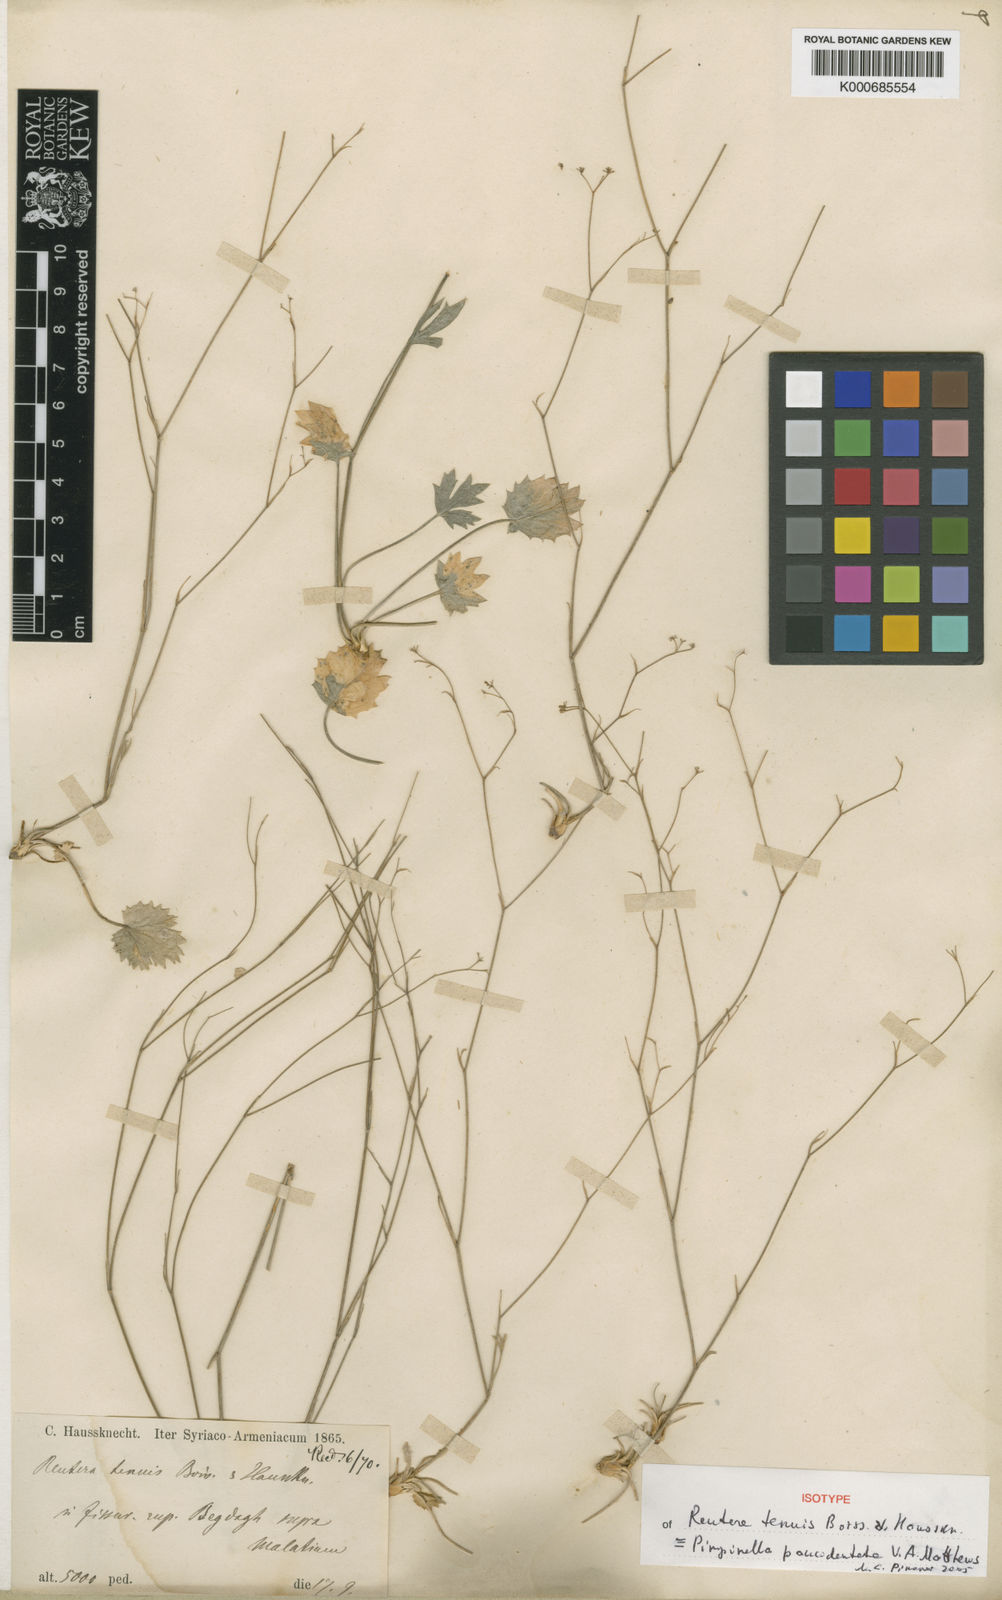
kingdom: Plantae
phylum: Tracheophyta
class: Magnoliopsida
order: Apiales
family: Apiaceae
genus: Pimpinella
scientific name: Pimpinella paucidentata
